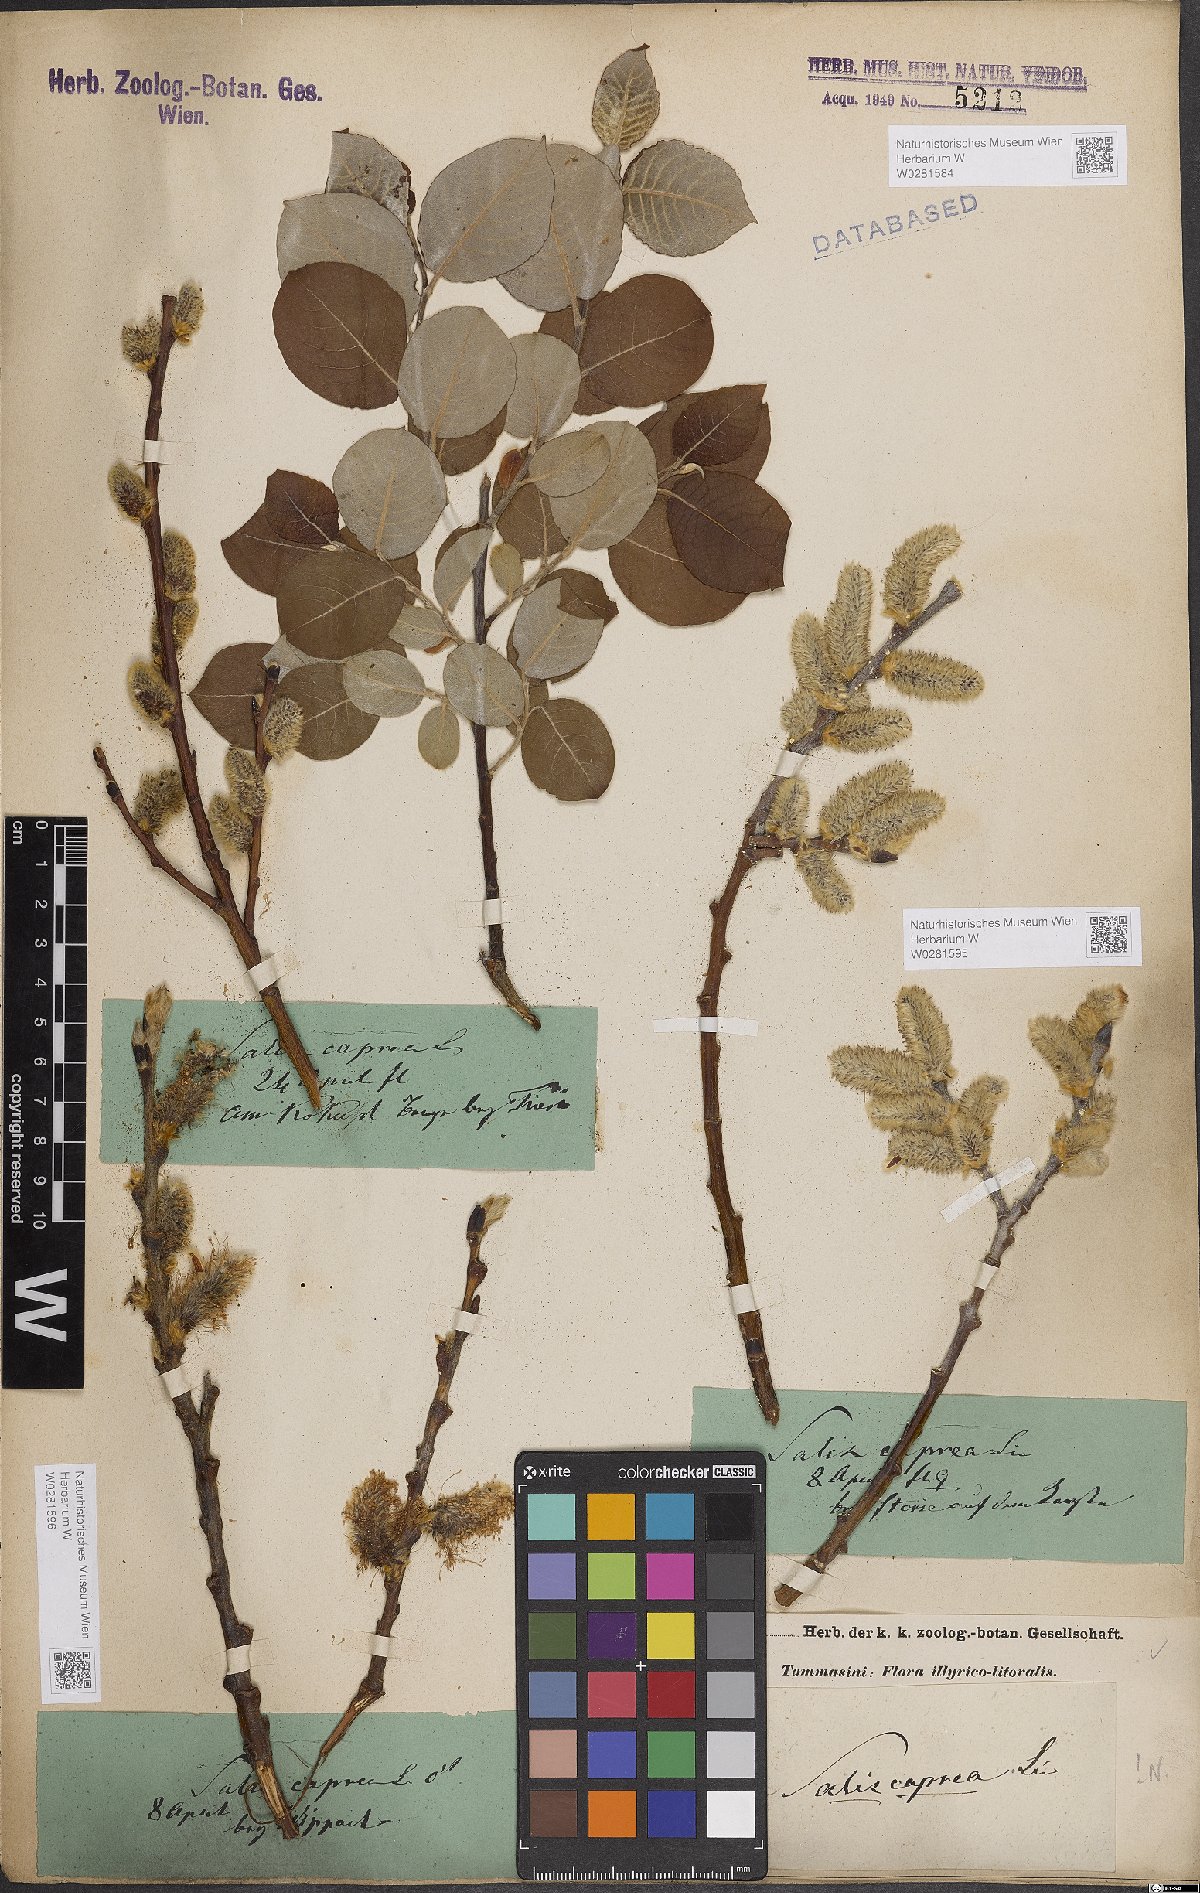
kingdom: Plantae
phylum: Tracheophyta
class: Magnoliopsida
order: Malpighiales
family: Salicaceae
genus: Salix
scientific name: Salix caprea
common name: Goat willow
